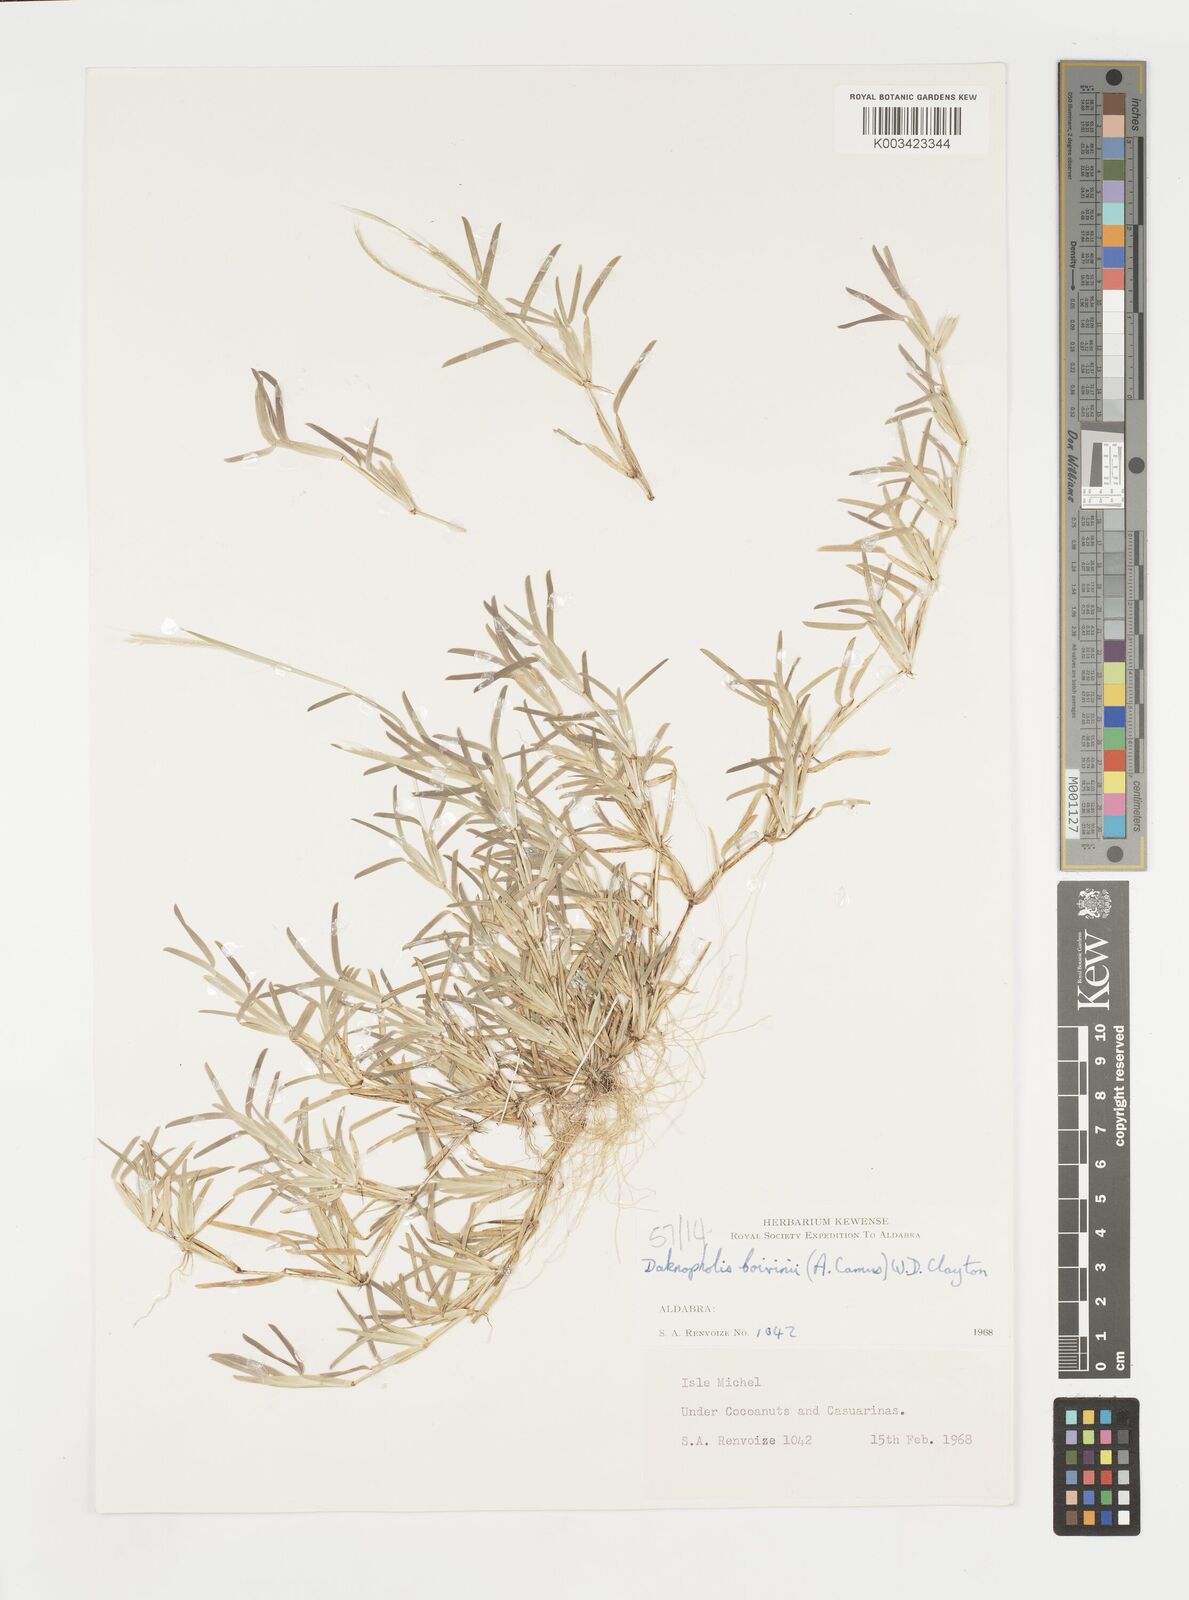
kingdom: Plantae
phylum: Tracheophyta
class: Liliopsida
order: Poales
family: Poaceae
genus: Daknopholis
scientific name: Daknopholis boivinii
